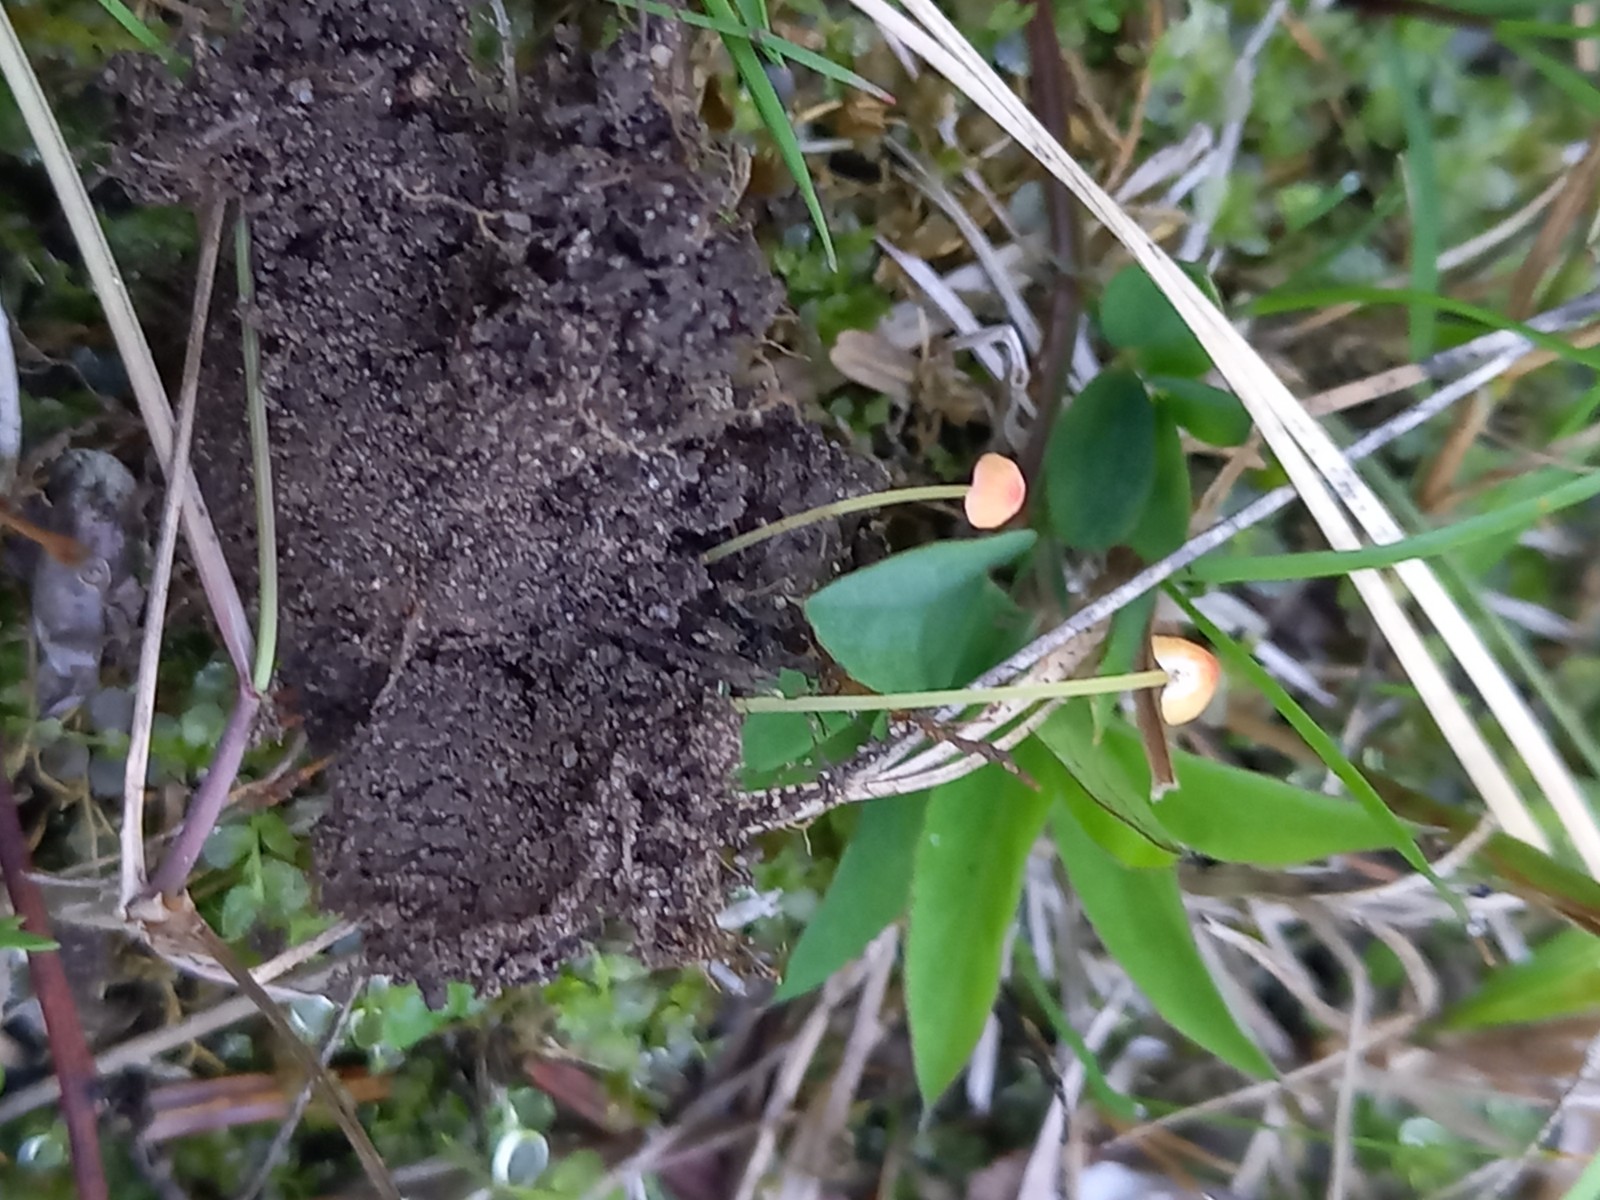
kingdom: Fungi
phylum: Basidiomycota
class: Agaricomycetes
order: Agaricales
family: Mycenaceae
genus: Mycena
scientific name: Mycena acicula
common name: orange huesvamp
